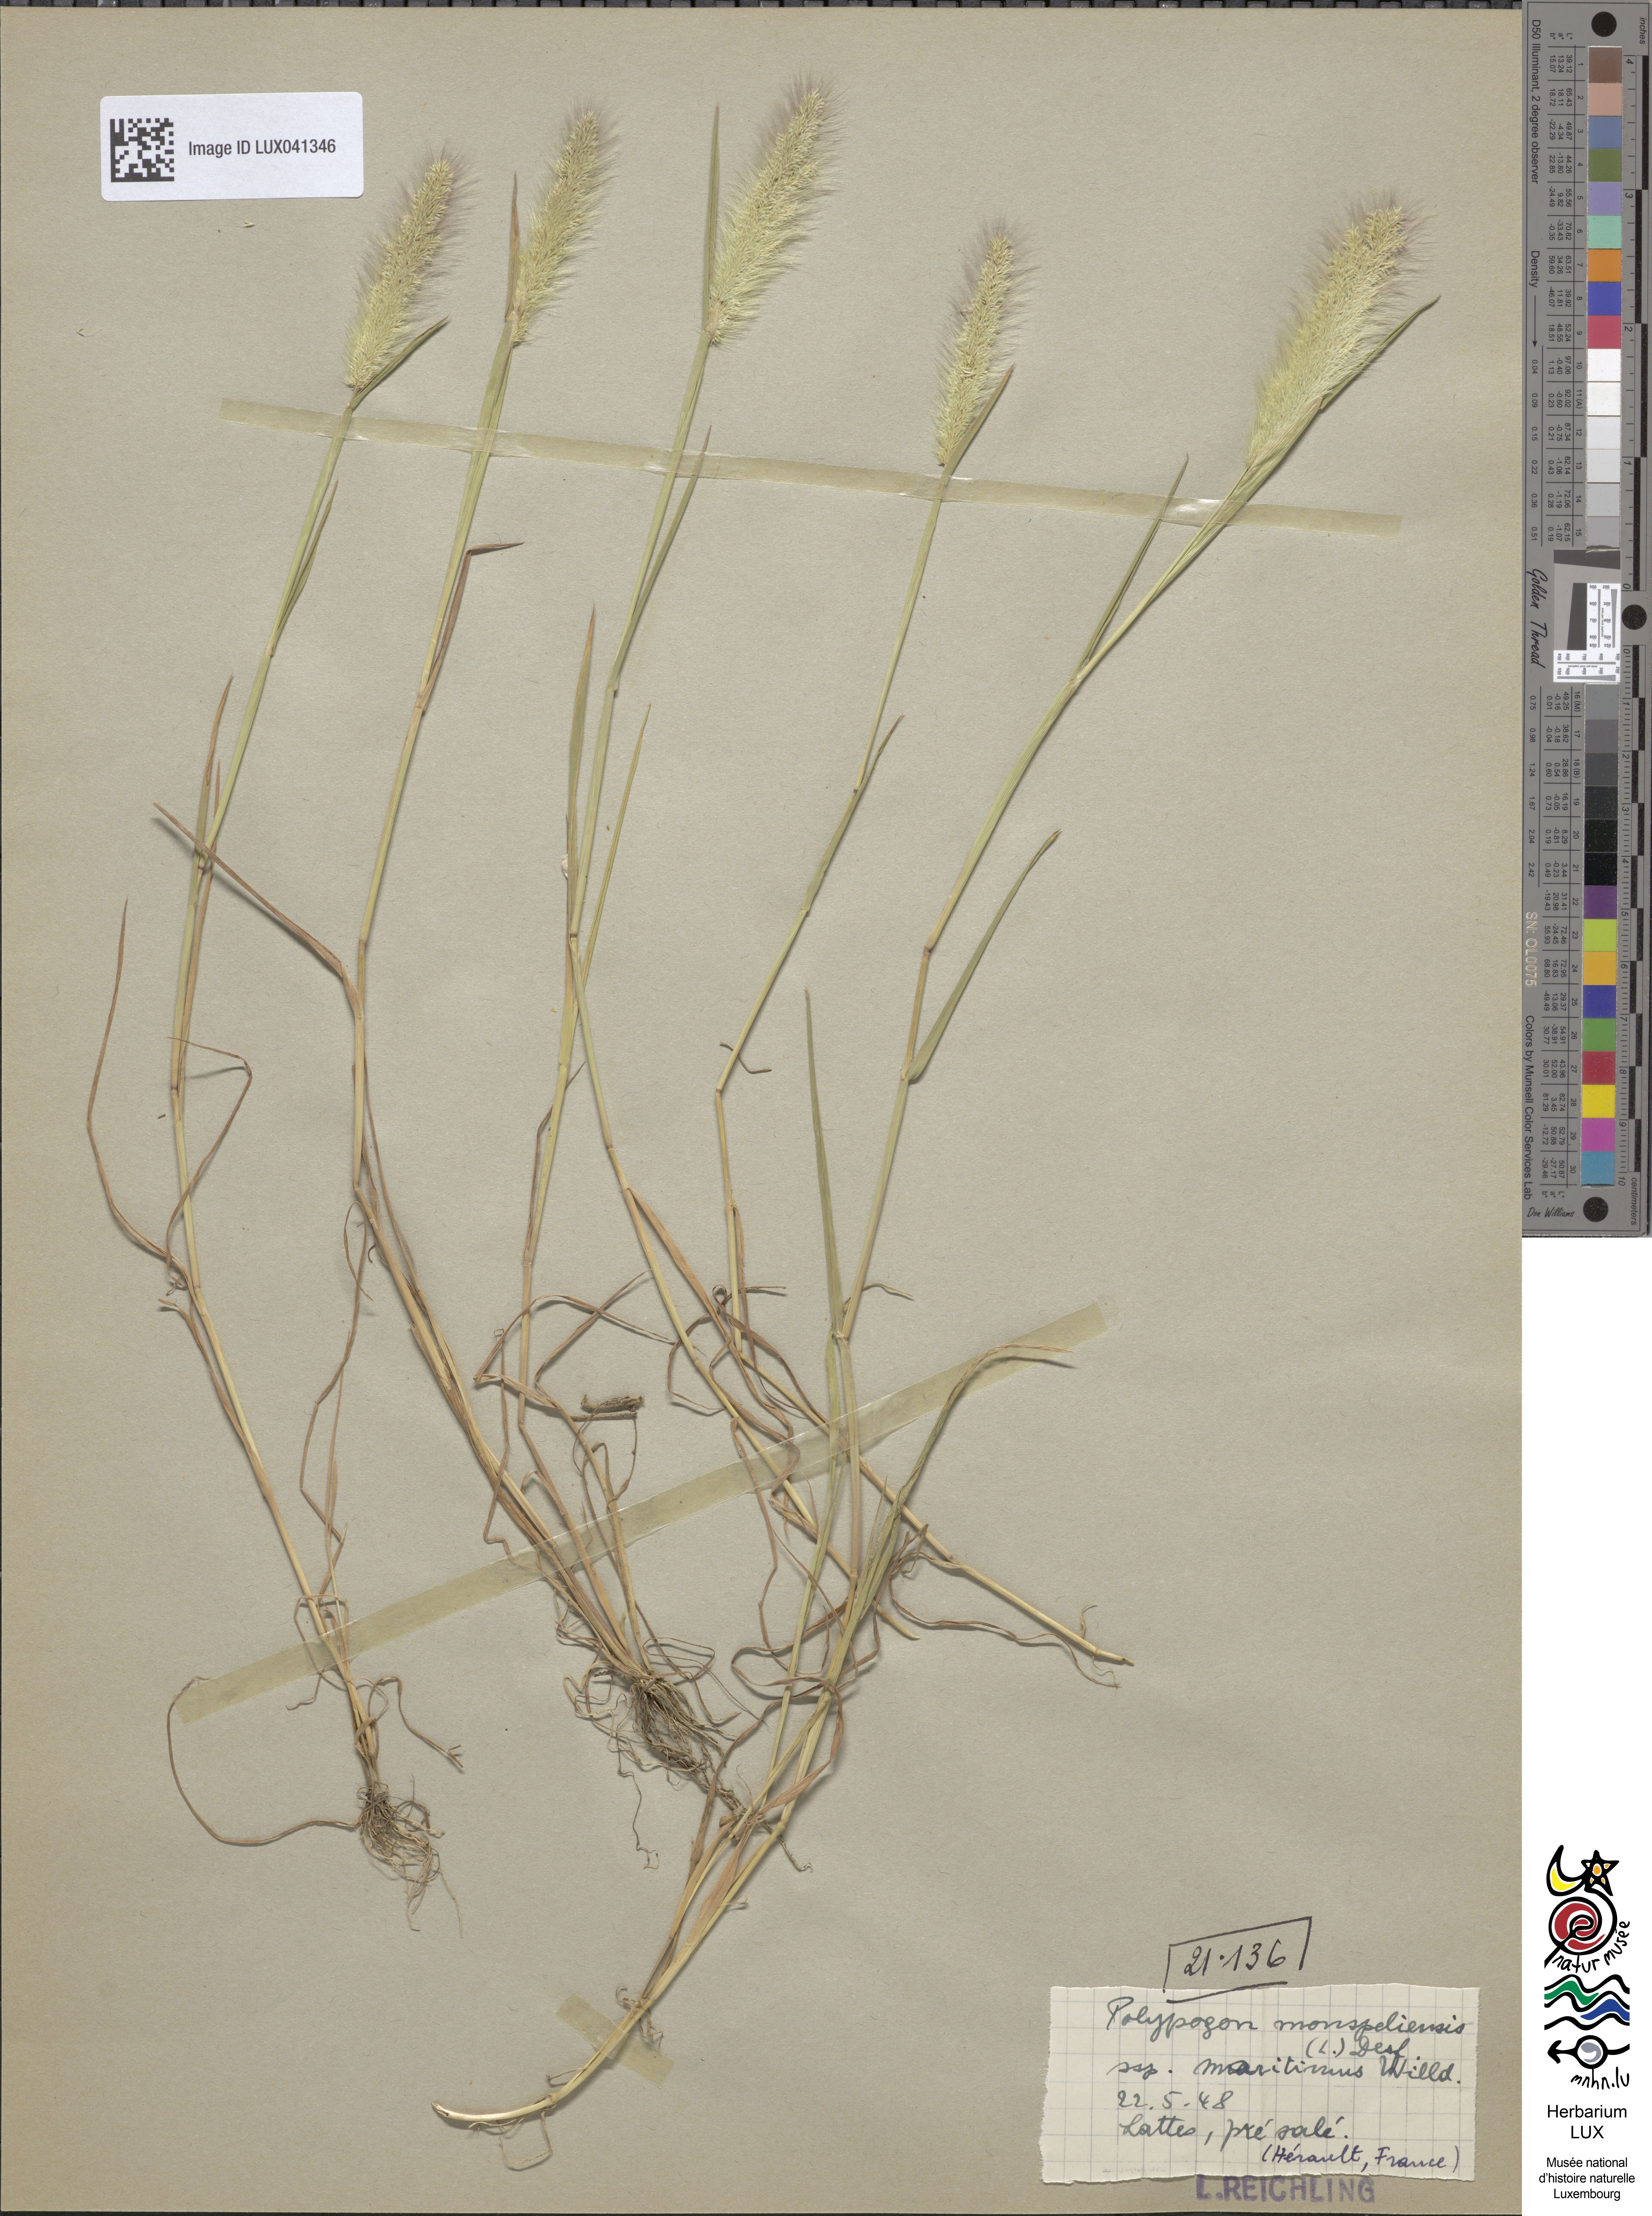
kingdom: Animalia
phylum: Arthropoda
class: Insecta
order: Lepidoptera
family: Erebidae
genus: Polypogon
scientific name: Polypogon
